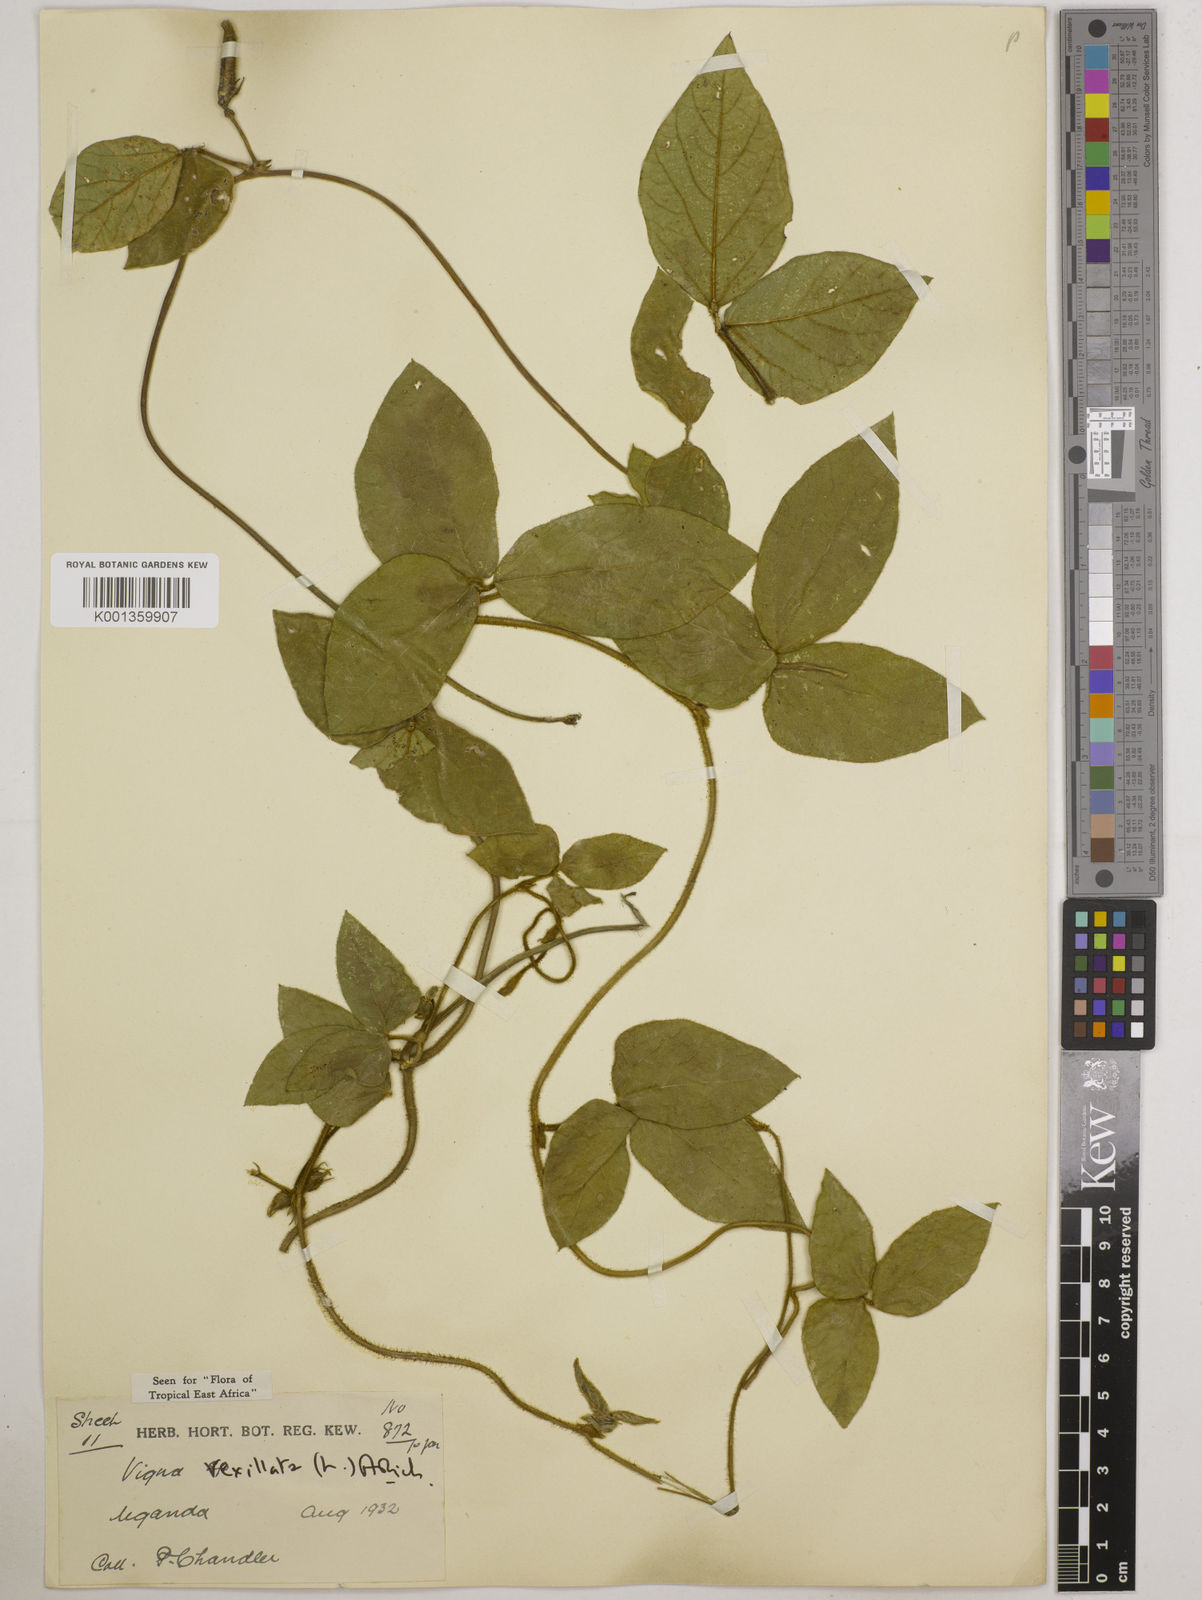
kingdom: Plantae
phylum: Tracheophyta
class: Magnoliopsida
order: Fabales
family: Fabaceae
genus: Vigna
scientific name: Vigna vexillata
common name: Zombi pea
